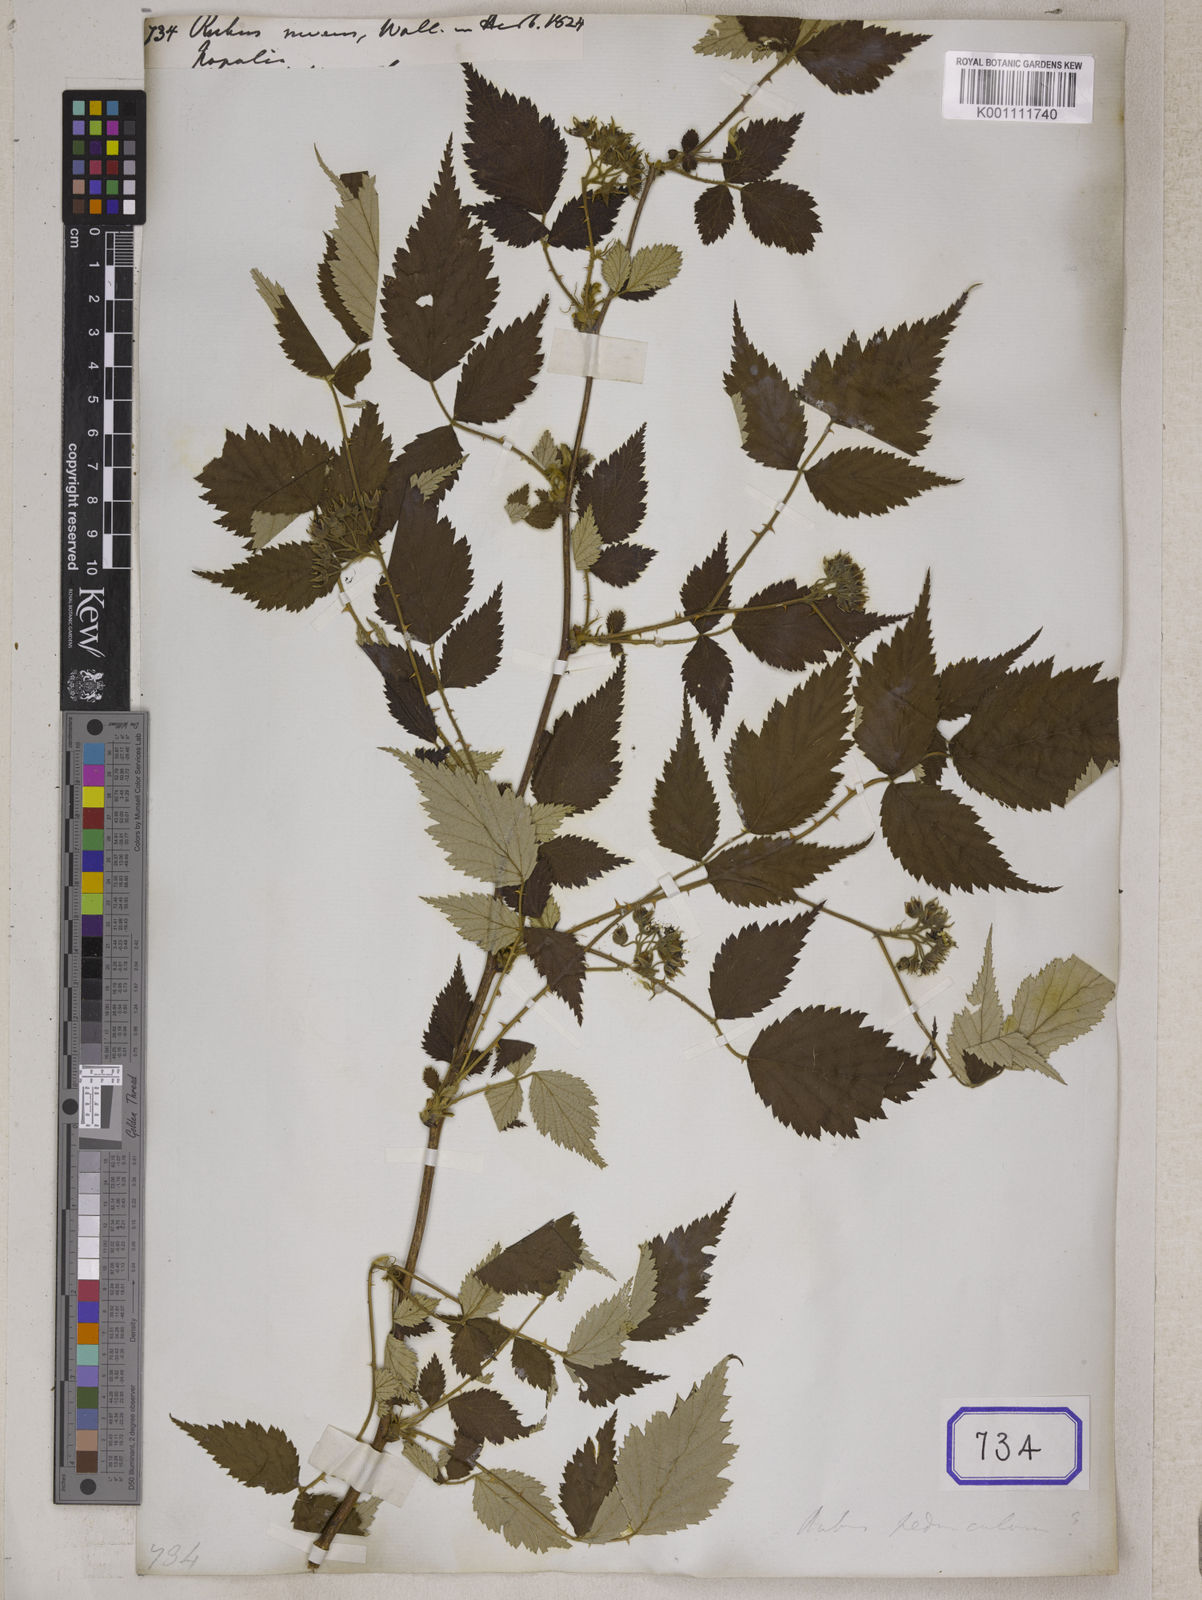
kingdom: Plantae
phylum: Tracheophyta
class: Magnoliopsida
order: Rosales
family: Rosaceae
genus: Rubus
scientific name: Rubus
